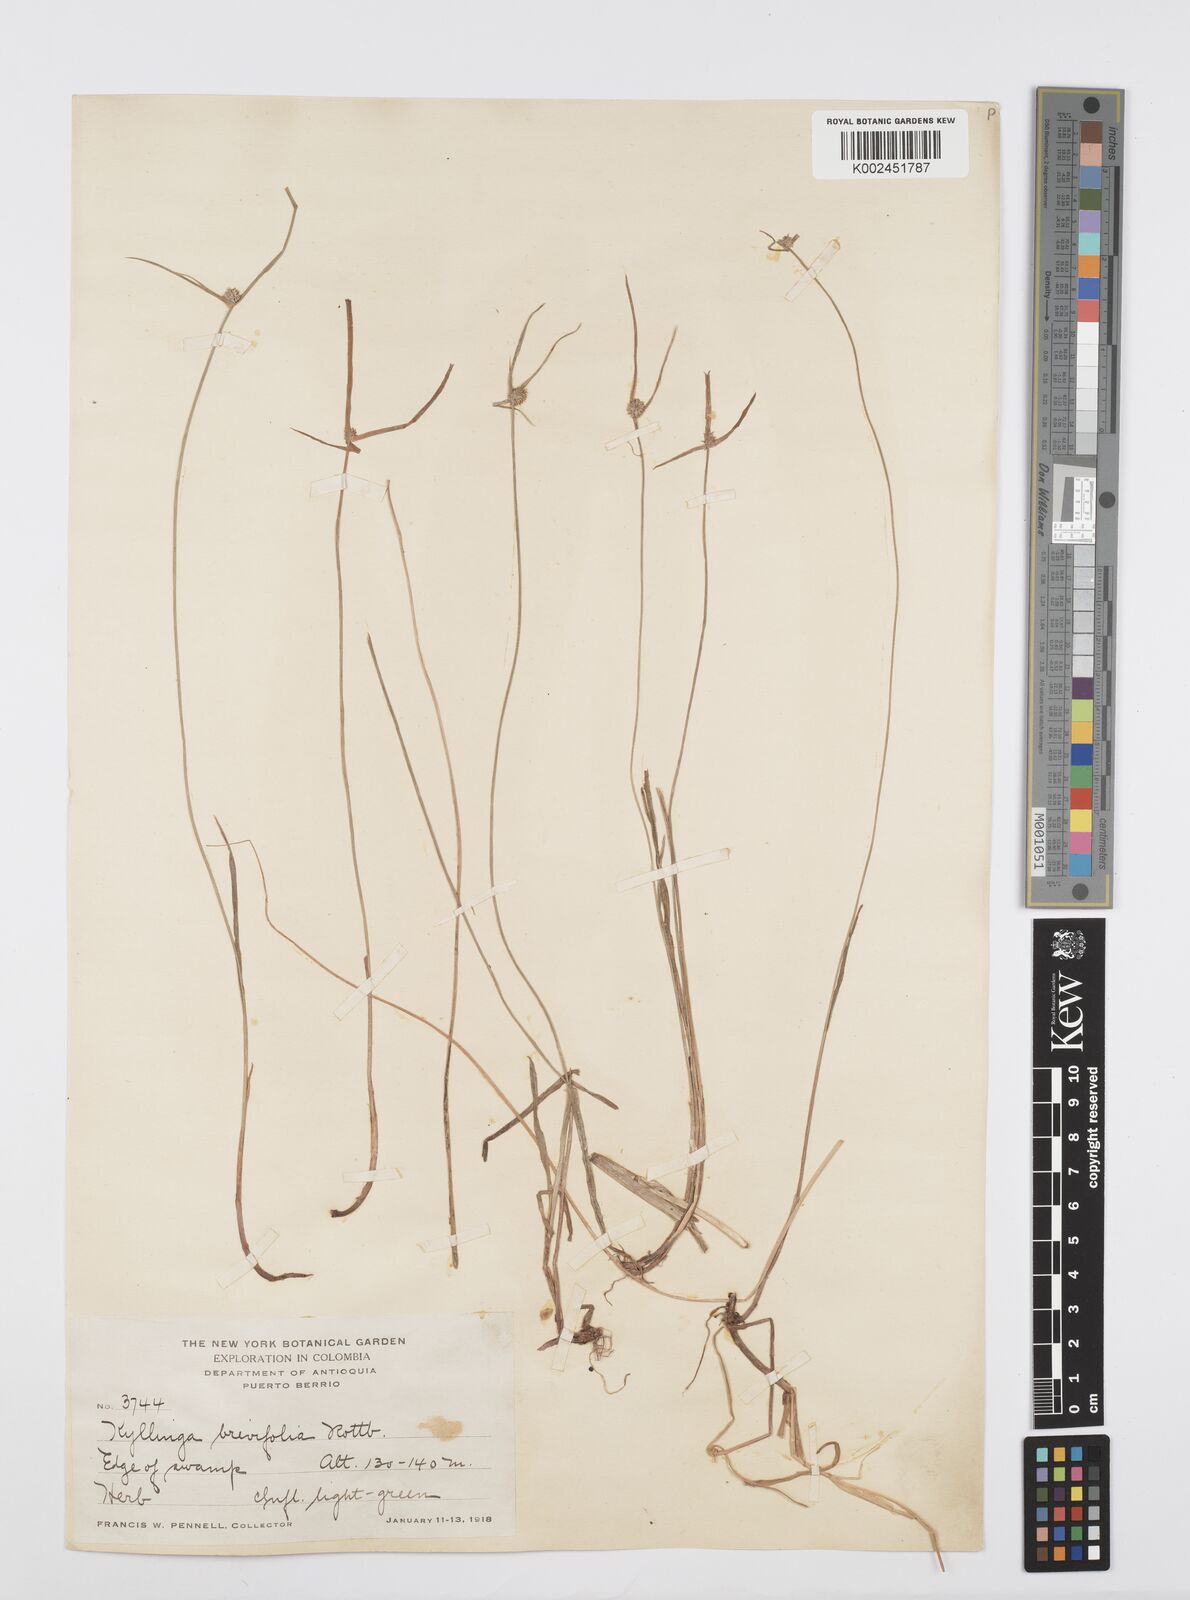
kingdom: Plantae
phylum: Tracheophyta
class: Liliopsida
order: Poales
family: Cyperaceae
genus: Cyperus
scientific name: Cyperus brevifolius
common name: Globe kyllinga
